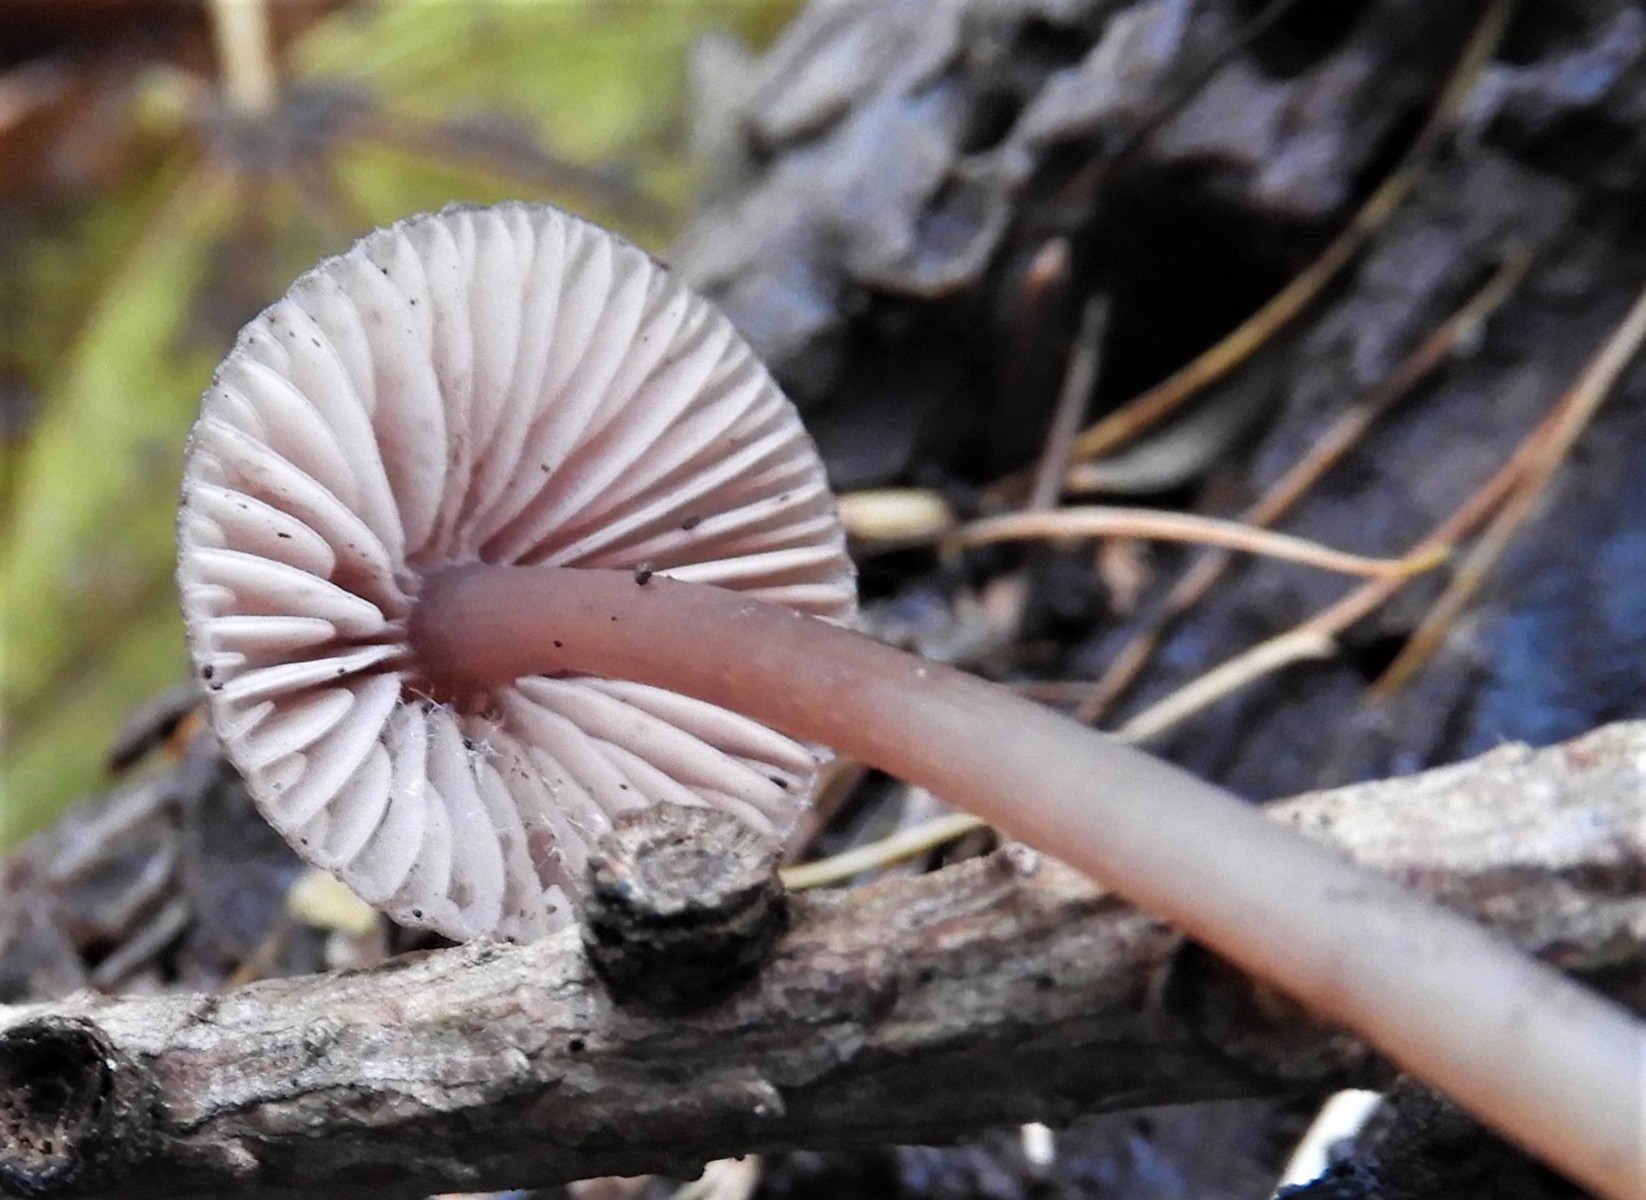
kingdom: Fungi
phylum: Basidiomycota
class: Agaricomycetes
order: Agaricales
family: Mycenaceae
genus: Mycena
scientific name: Mycena haematopus
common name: blødende huesvamp
